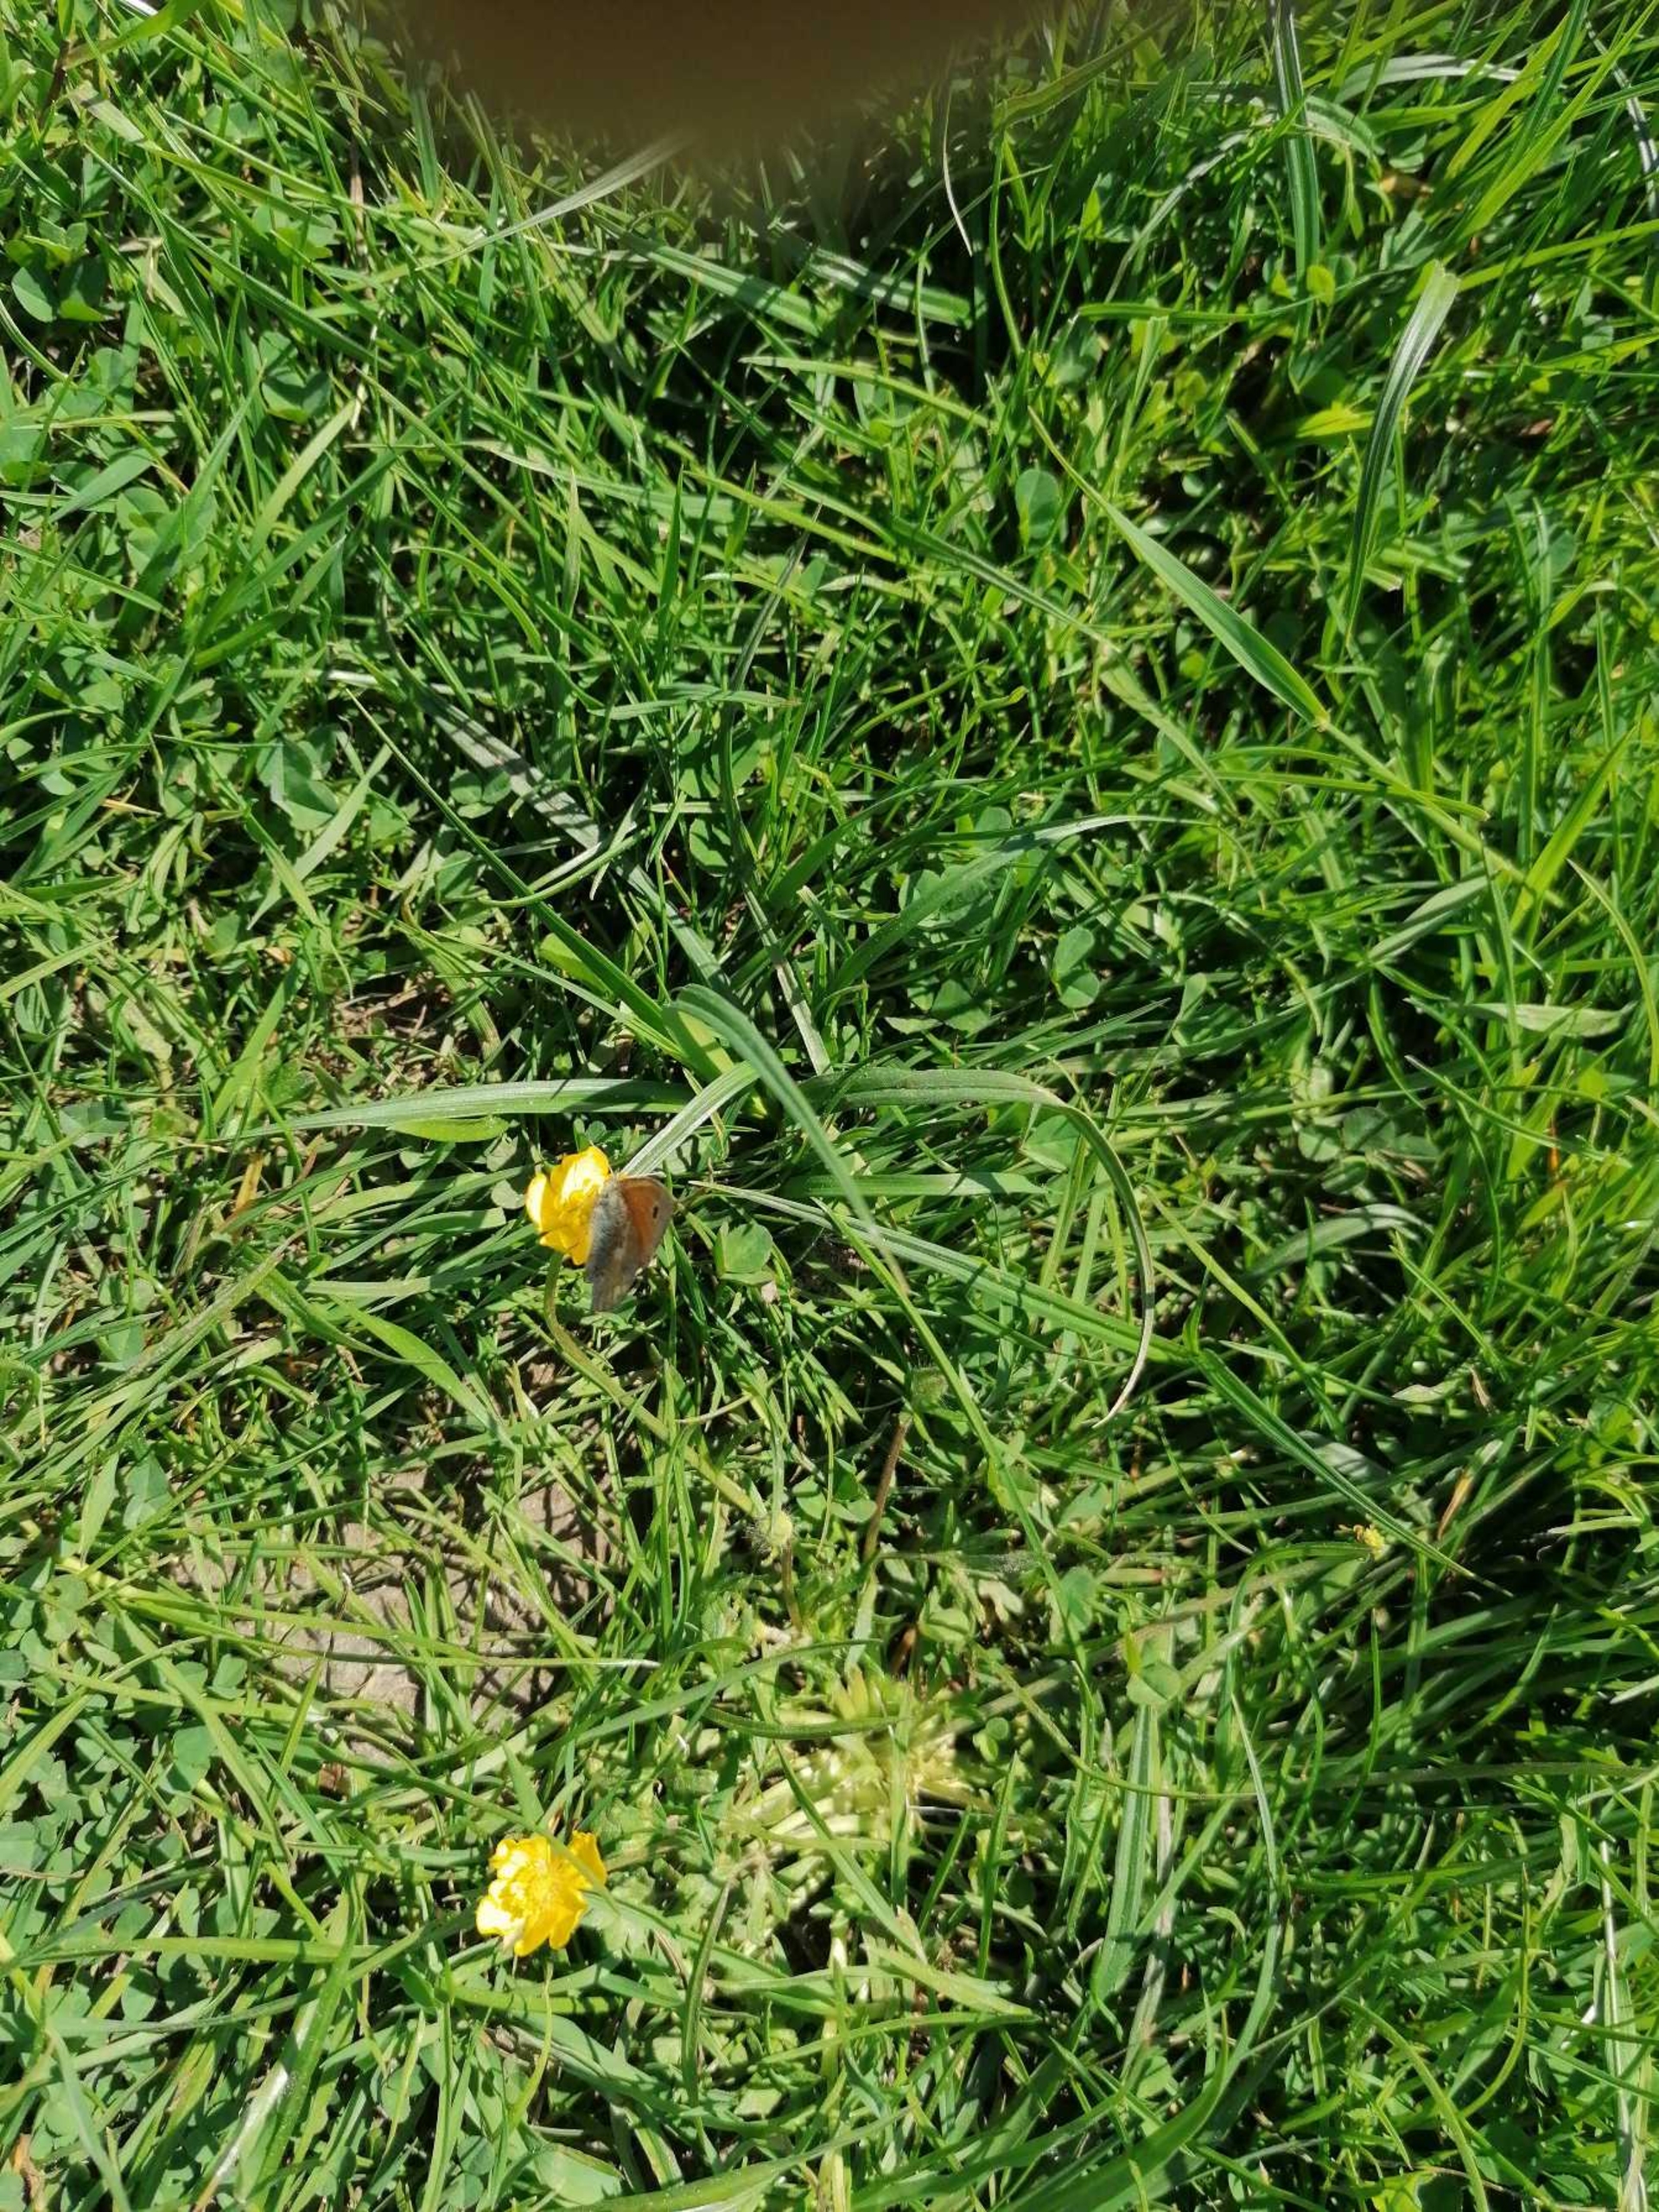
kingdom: Animalia
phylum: Arthropoda
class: Insecta
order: Lepidoptera
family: Nymphalidae
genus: Coenonympha
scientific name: Coenonympha pamphilus
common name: Okkergul randøje
